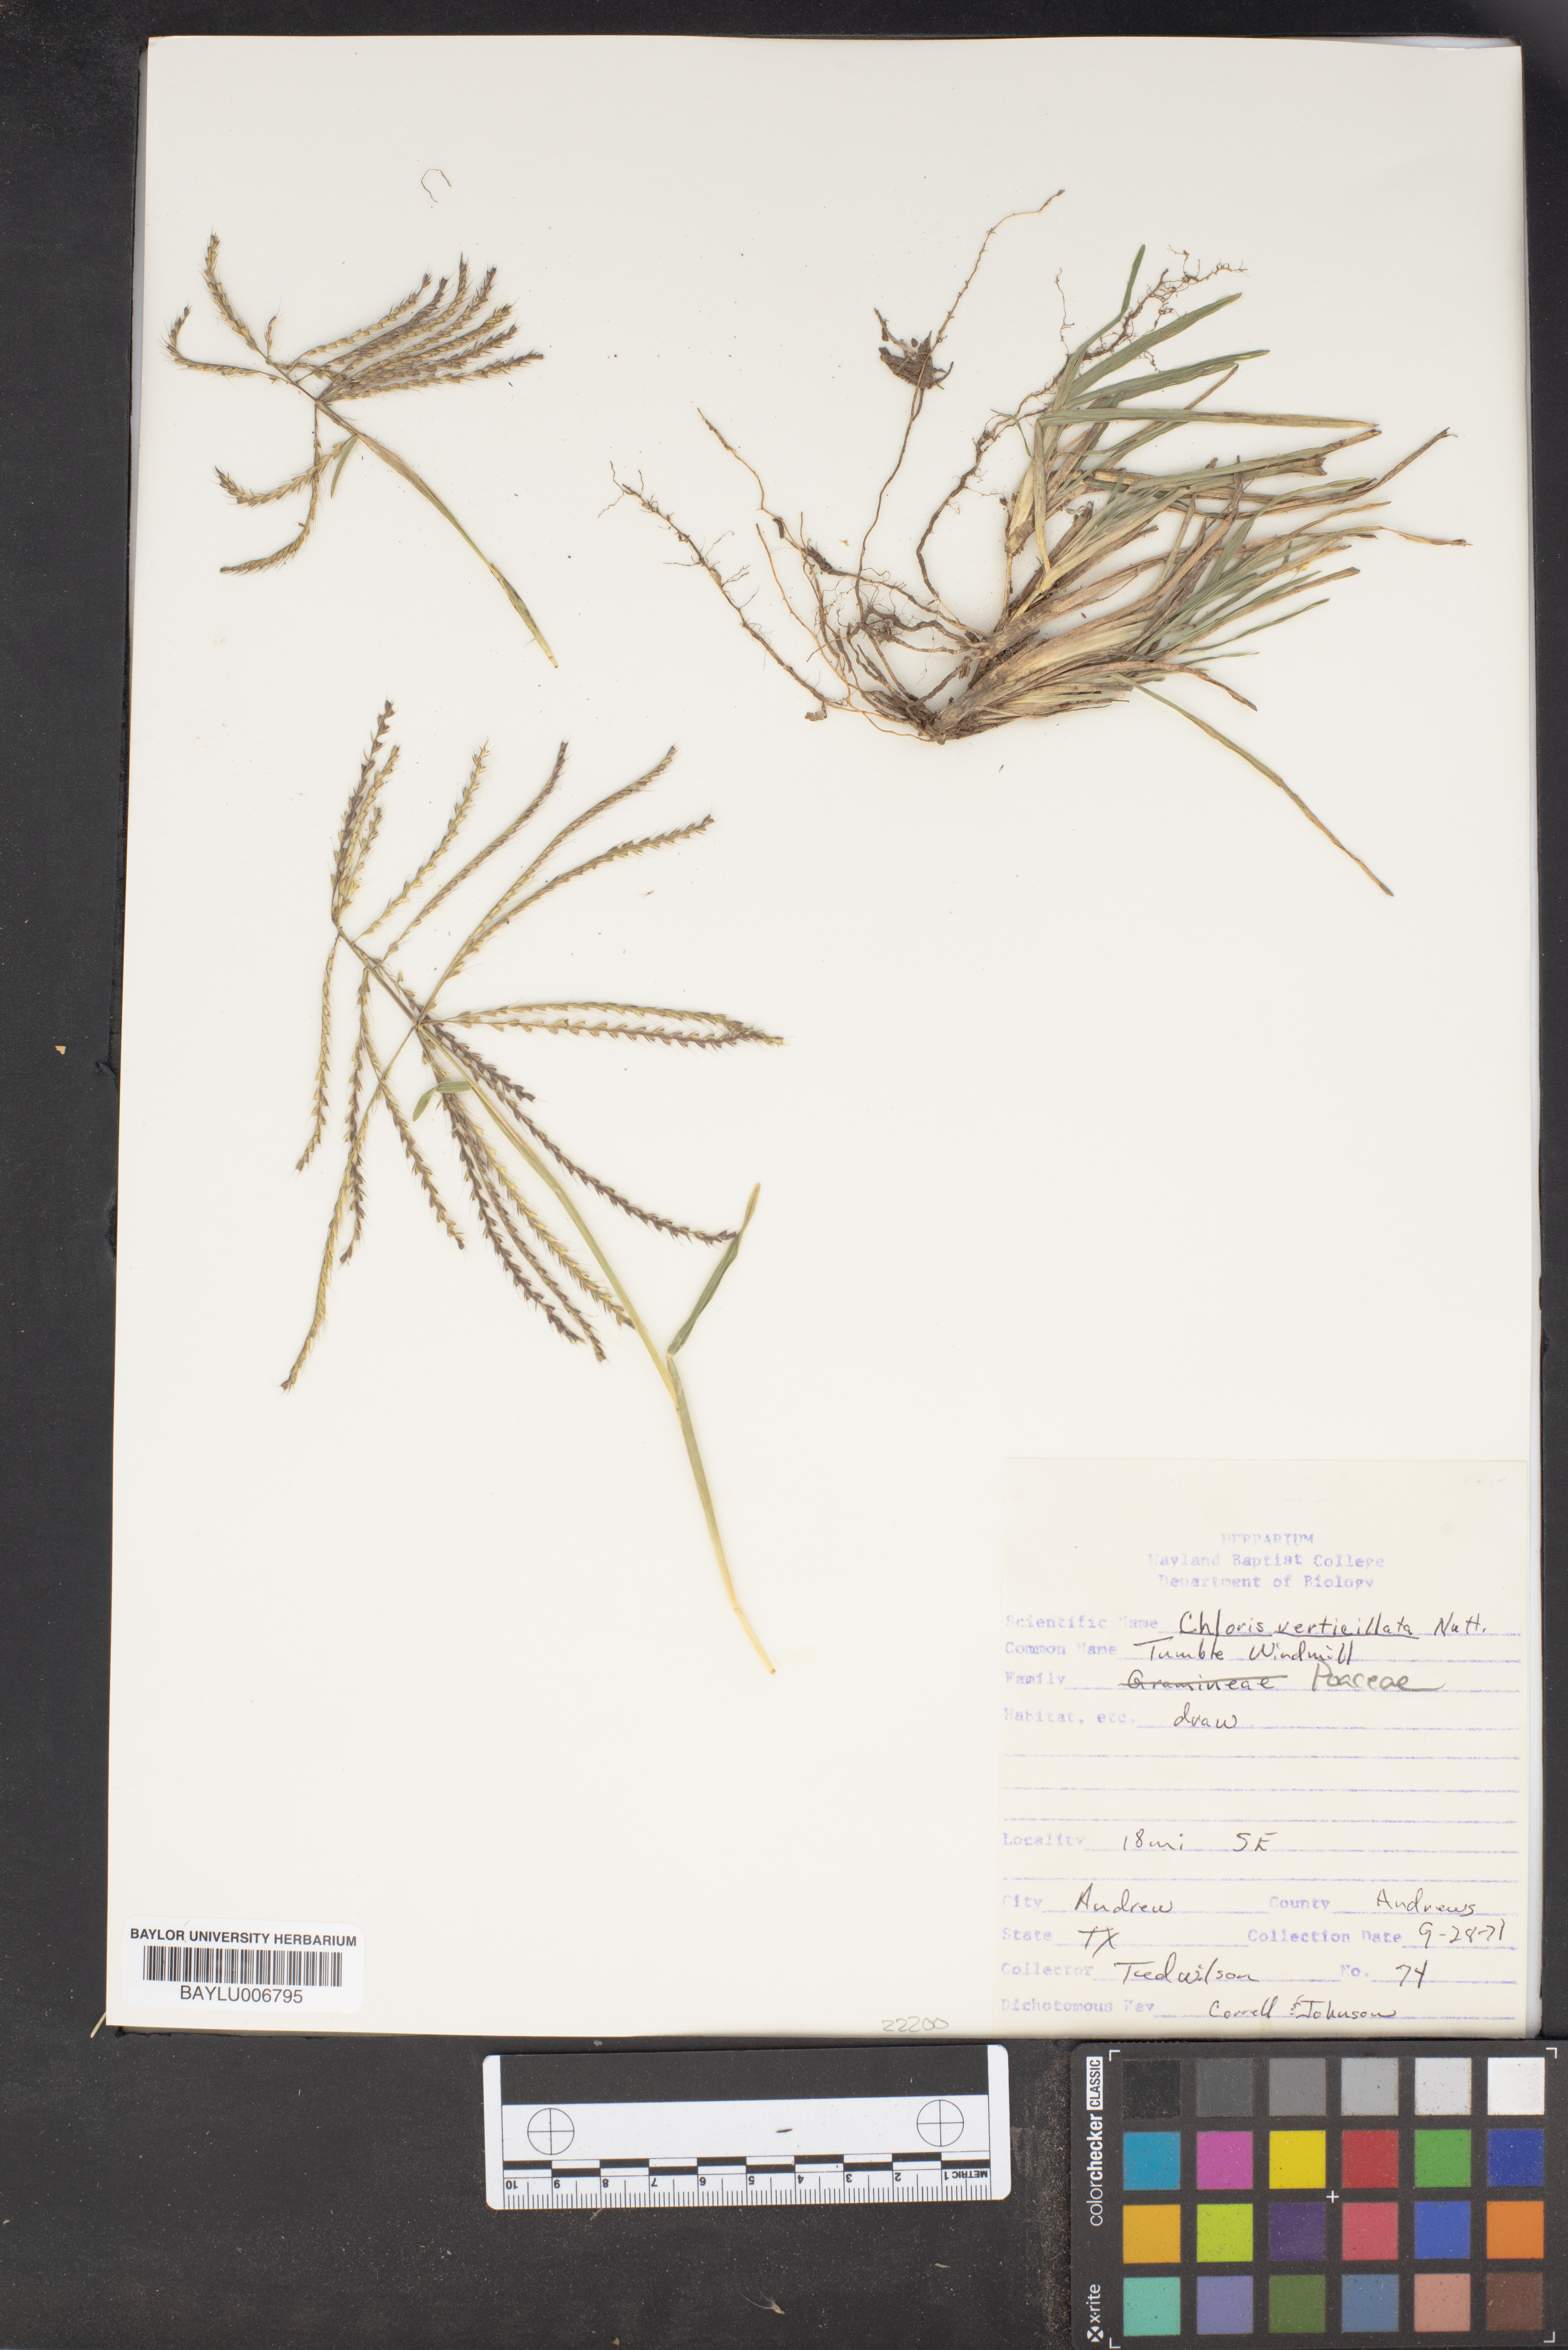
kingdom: Plantae
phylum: Tracheophyta
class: Liliopsida
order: Poales
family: Poaceae
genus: Chloris
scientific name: Chloris verticillata
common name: Tumble windmill grass
